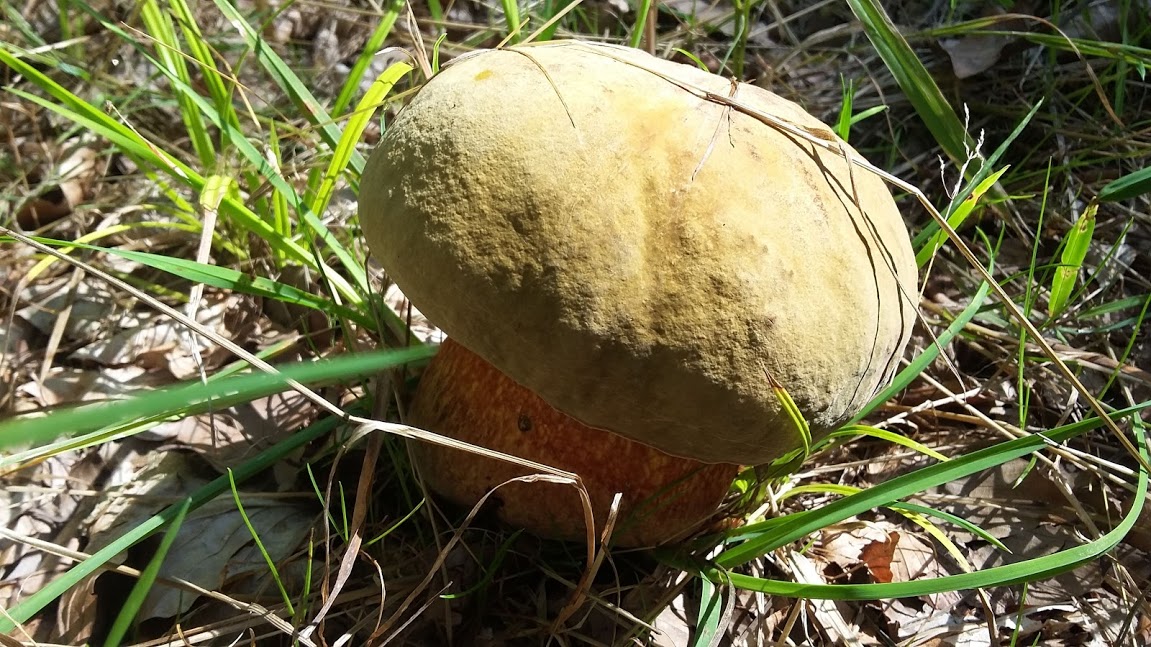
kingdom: Fungi
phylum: Basidiomycota
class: Agaricomycetes
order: Boletales
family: Boletaceae
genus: Suillellus
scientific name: Suillellus luridus
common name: netstokket indigorørhat
